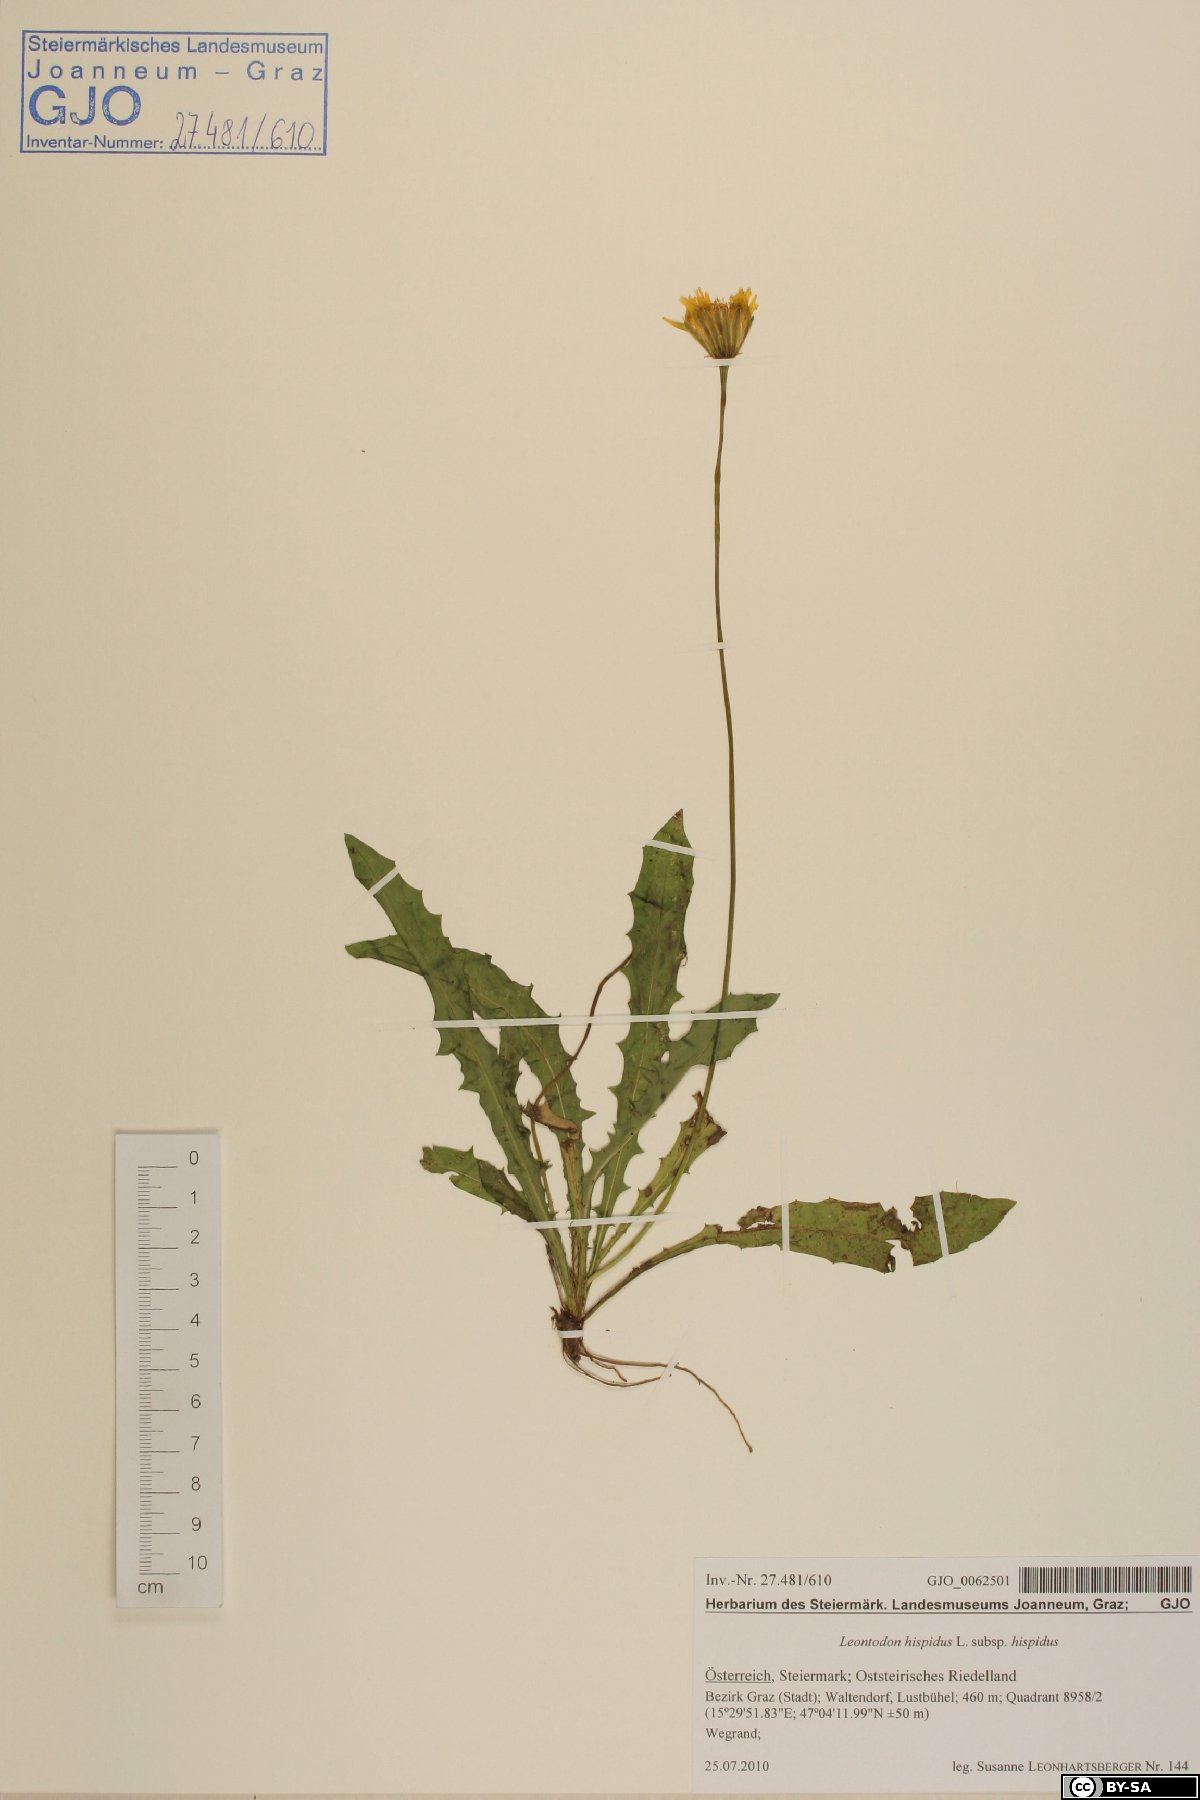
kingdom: Plantae
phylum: Tracheophyta
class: Magnoliopsida
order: Asterales
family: Asteraceae
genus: Leontodon
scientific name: Leontodon hispidus
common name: Rough hawkbit
